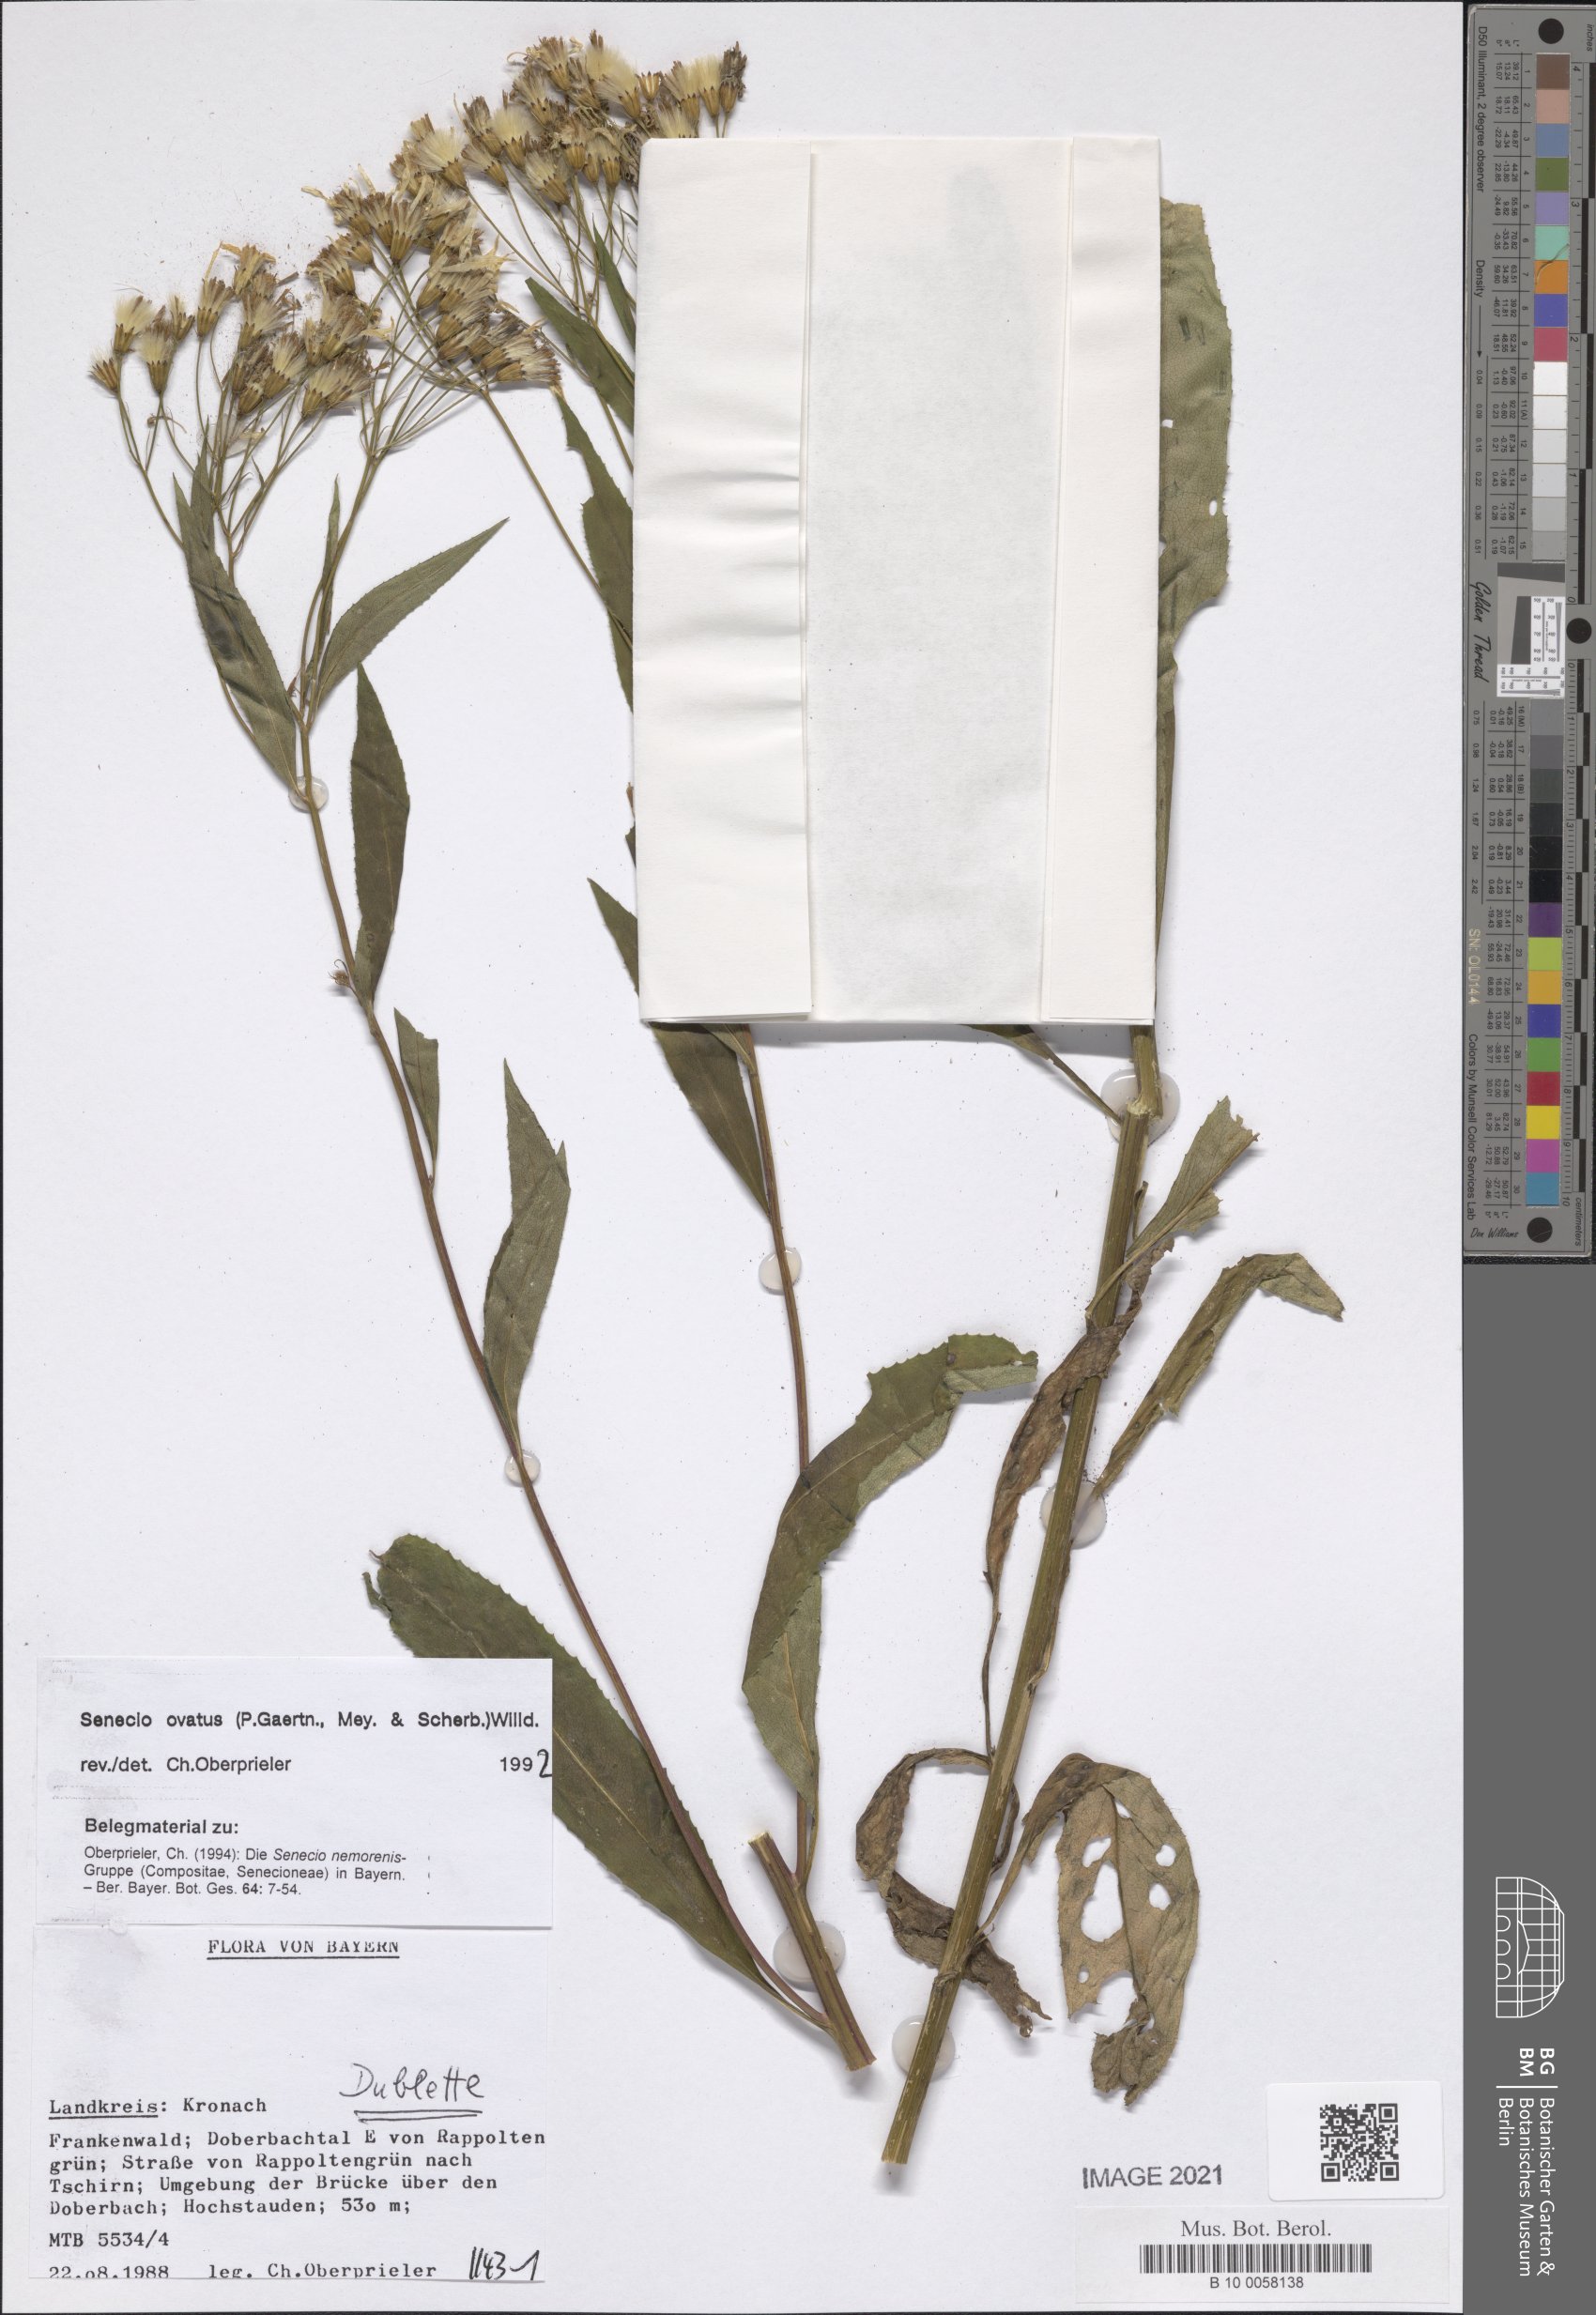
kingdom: Plantae
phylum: Tracheophyta
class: Magnoliopsida
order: Asterales
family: Asteraceae
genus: Senecio
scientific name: Senecio ovatus
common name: Wood ragwort
